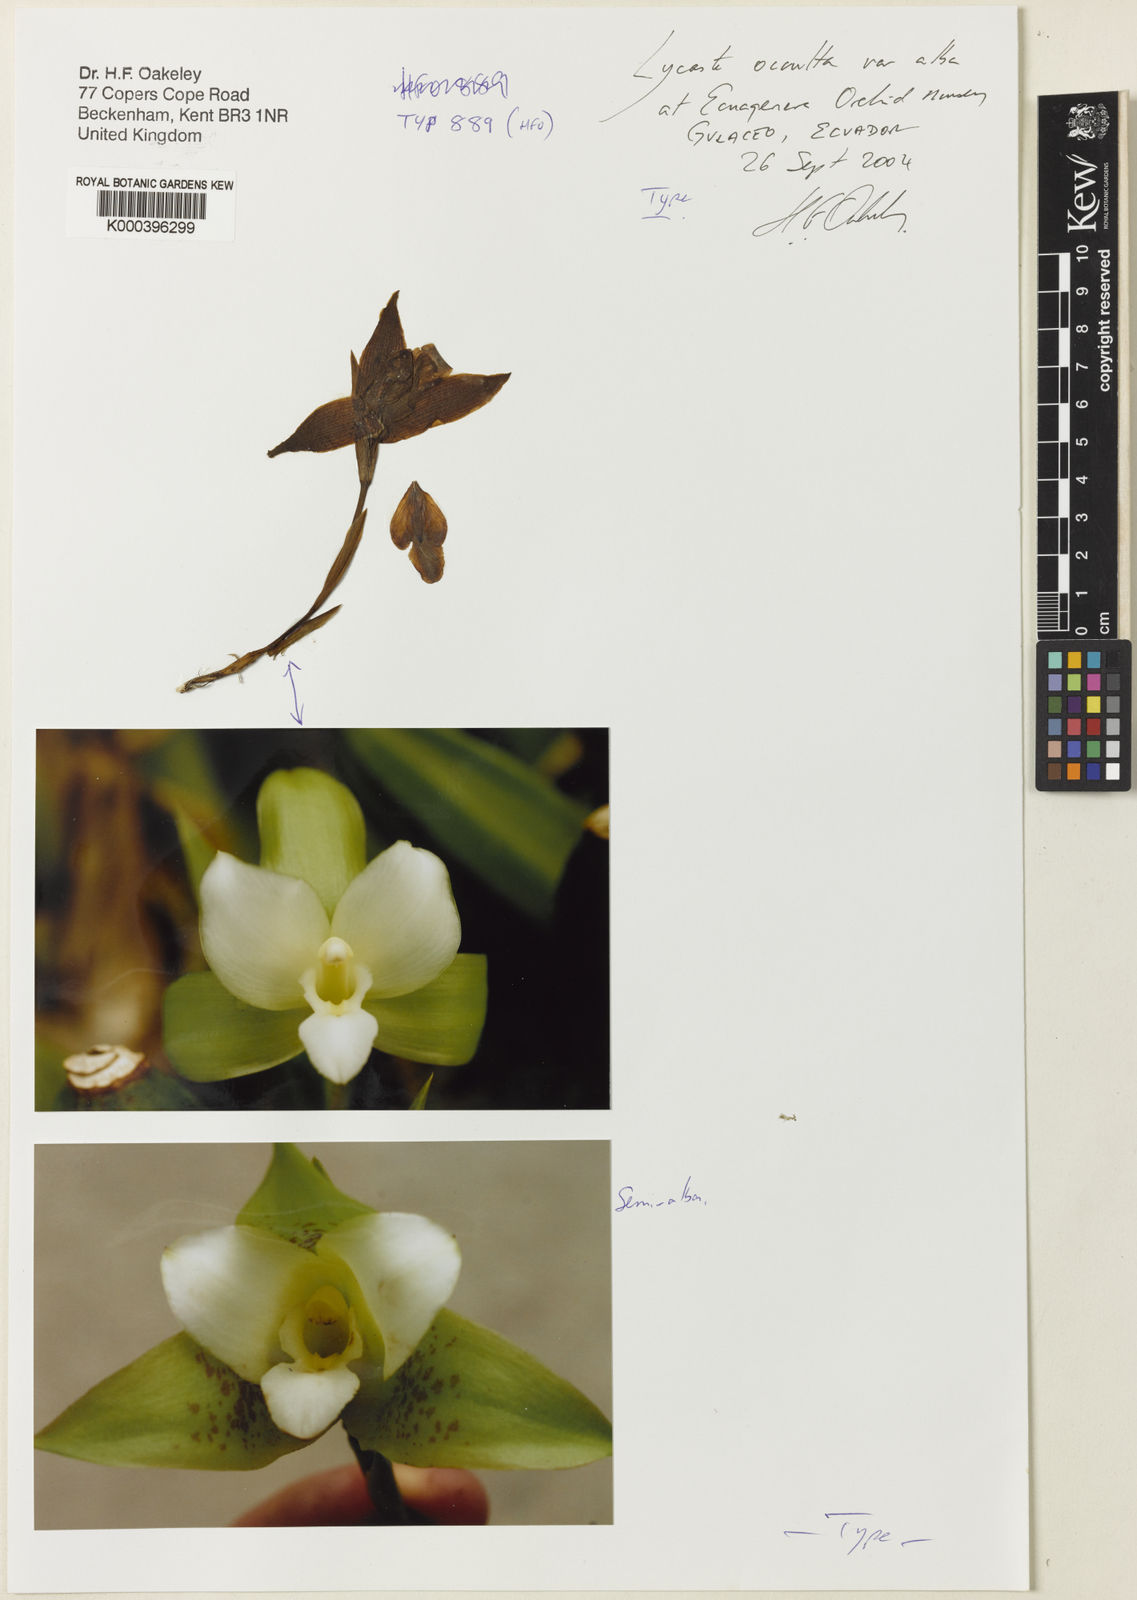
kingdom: Plantae
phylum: Tracheophyta
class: Liliopsida
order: Asparagales
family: Orchidaceae
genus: Lycaste
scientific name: Lycaste occulta
